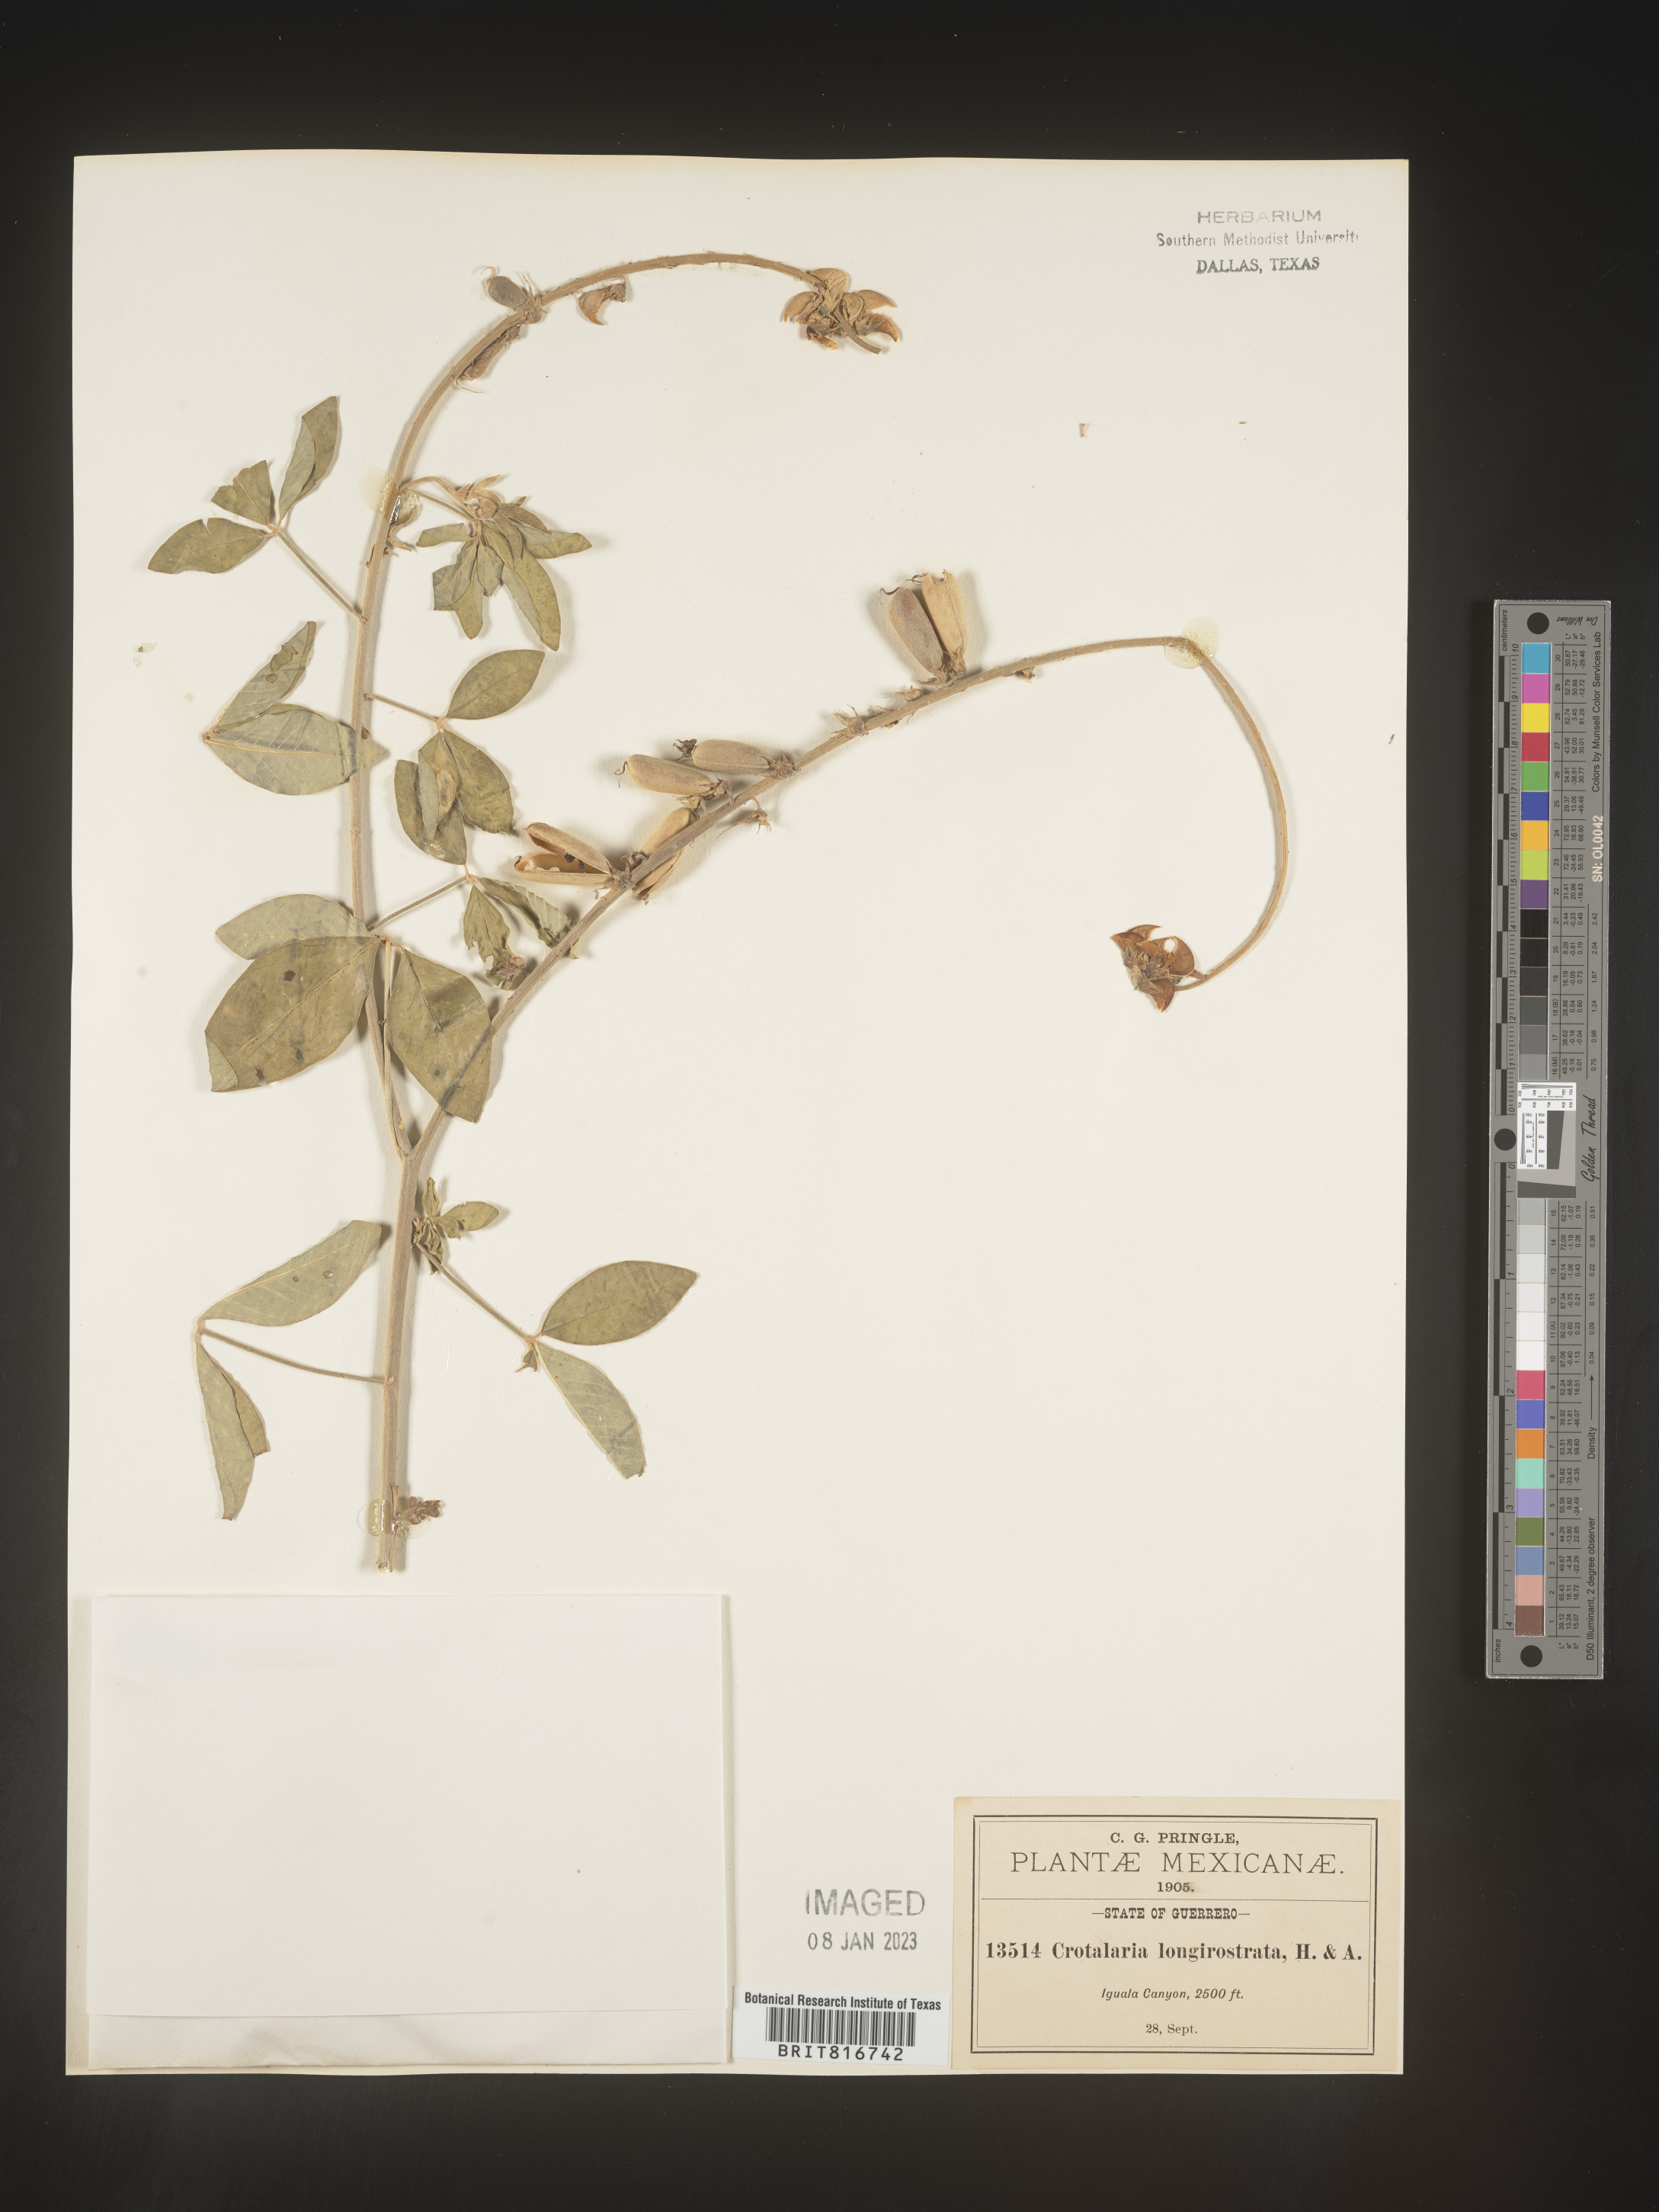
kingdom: Plantae
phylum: Tracheophyta
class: Magnoliopsida
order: Fabales
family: Fabaceae
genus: Crotalaria
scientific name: Crotalaria
